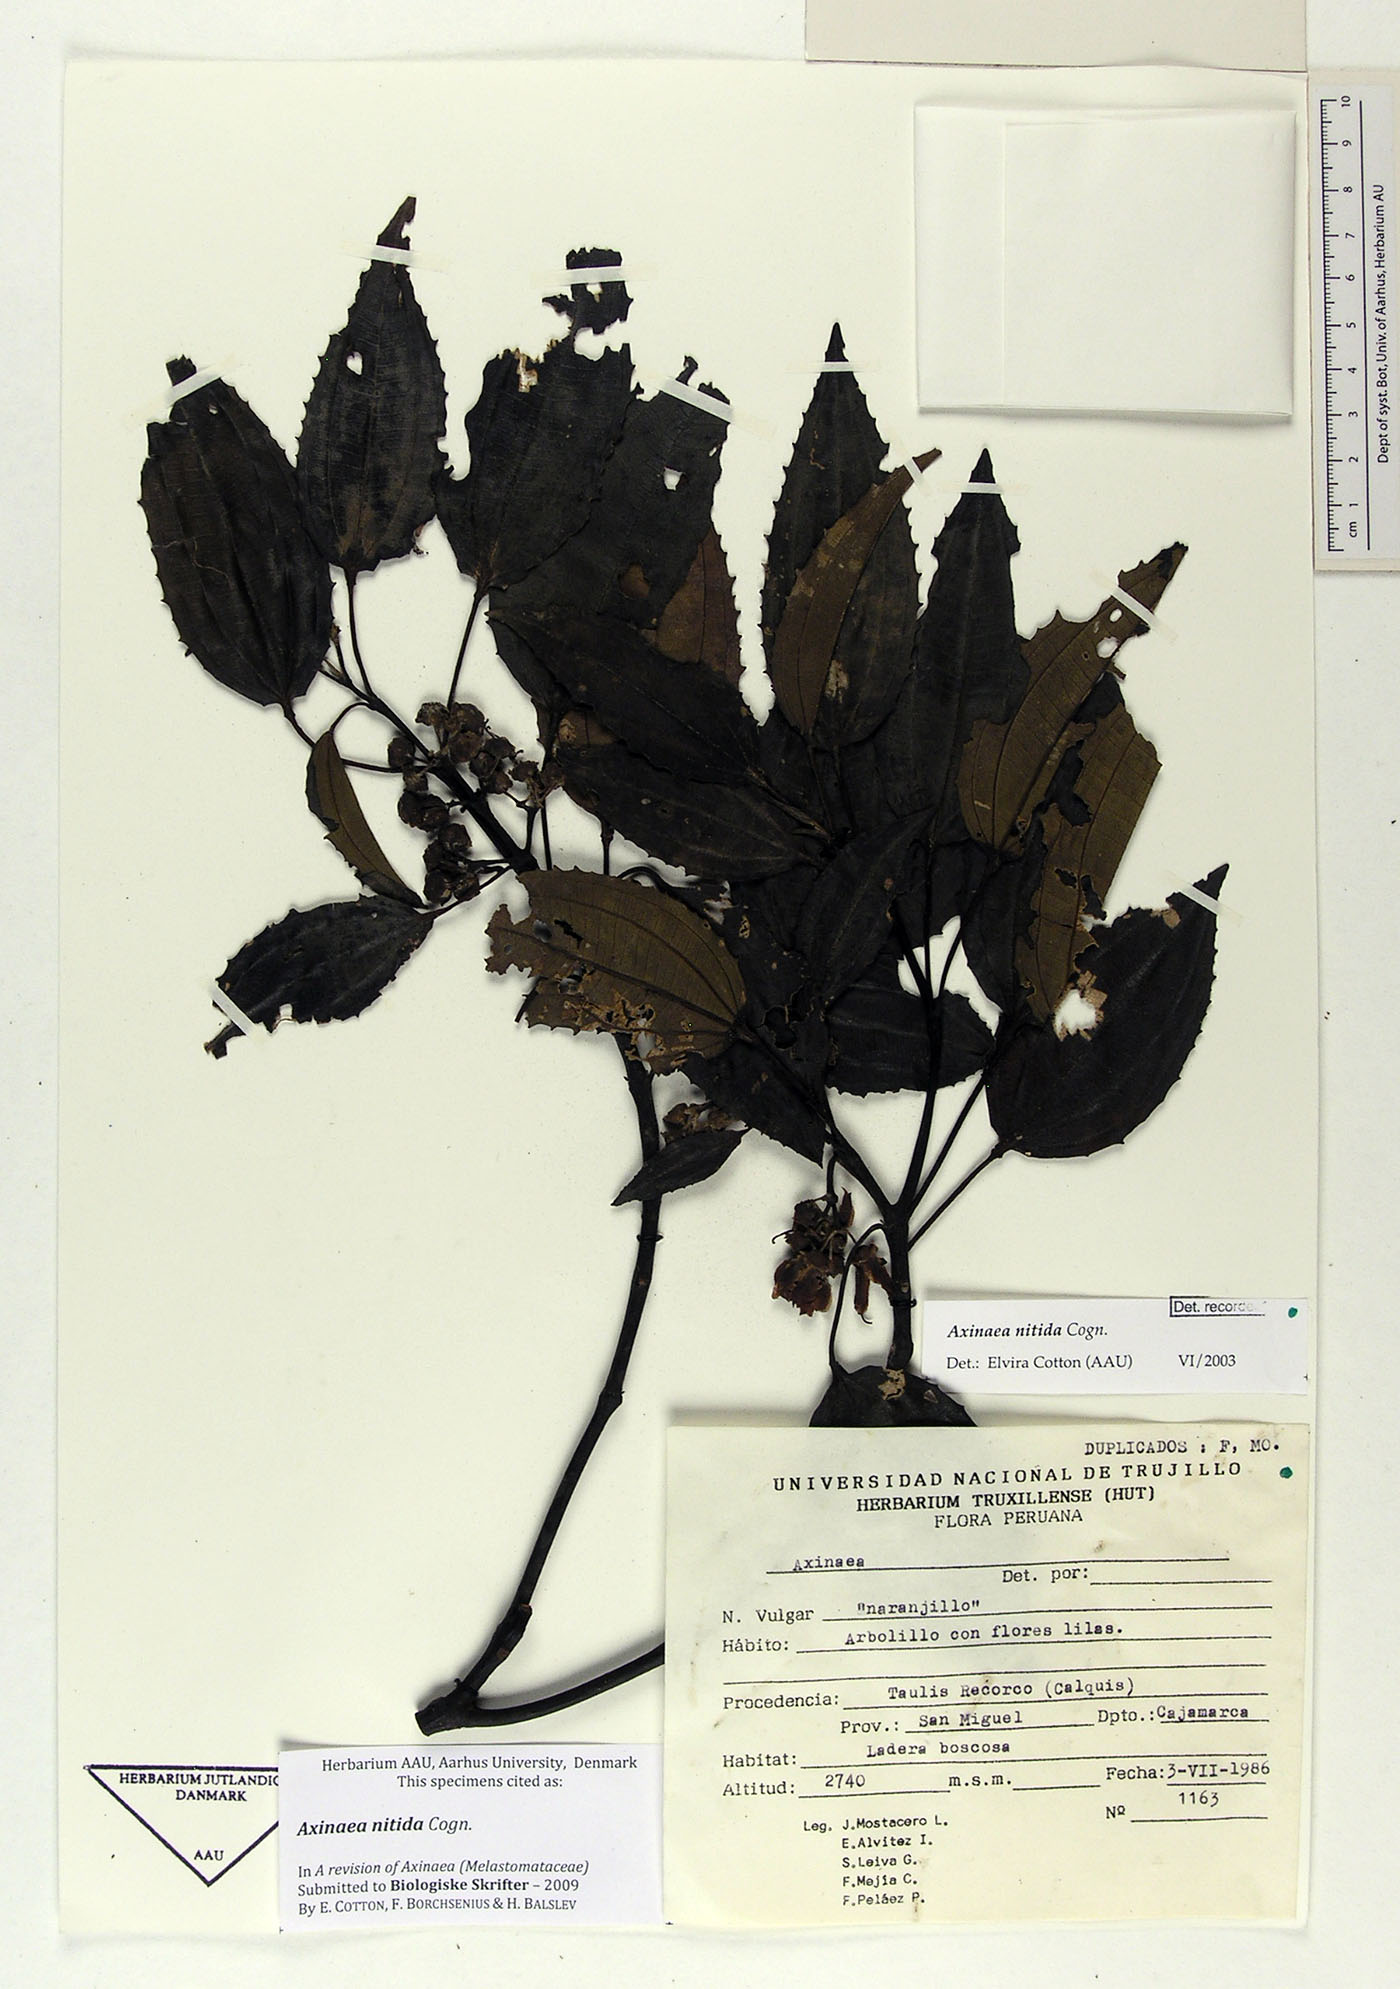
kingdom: Plantae
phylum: Tracheophyta
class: Magnoliopsida
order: Myrtales
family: Melastomataceae
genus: Axinaea
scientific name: Axinaea nitida
